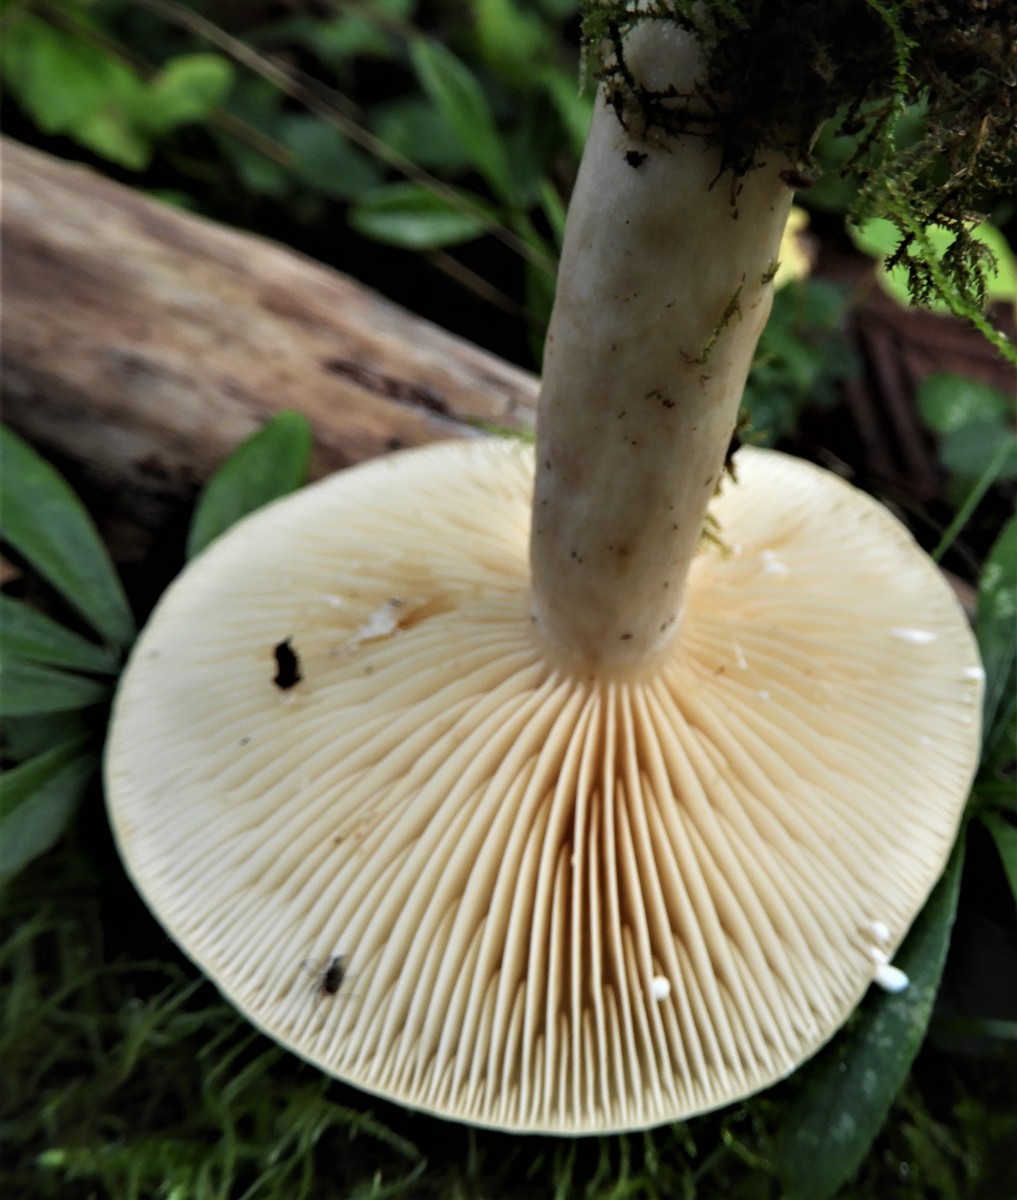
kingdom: Fungi
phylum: Basidiomycota
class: Agaricomycetes
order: Russulales
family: Russulaceae
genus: Lactarius
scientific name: Lactarius
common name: mælkehat
